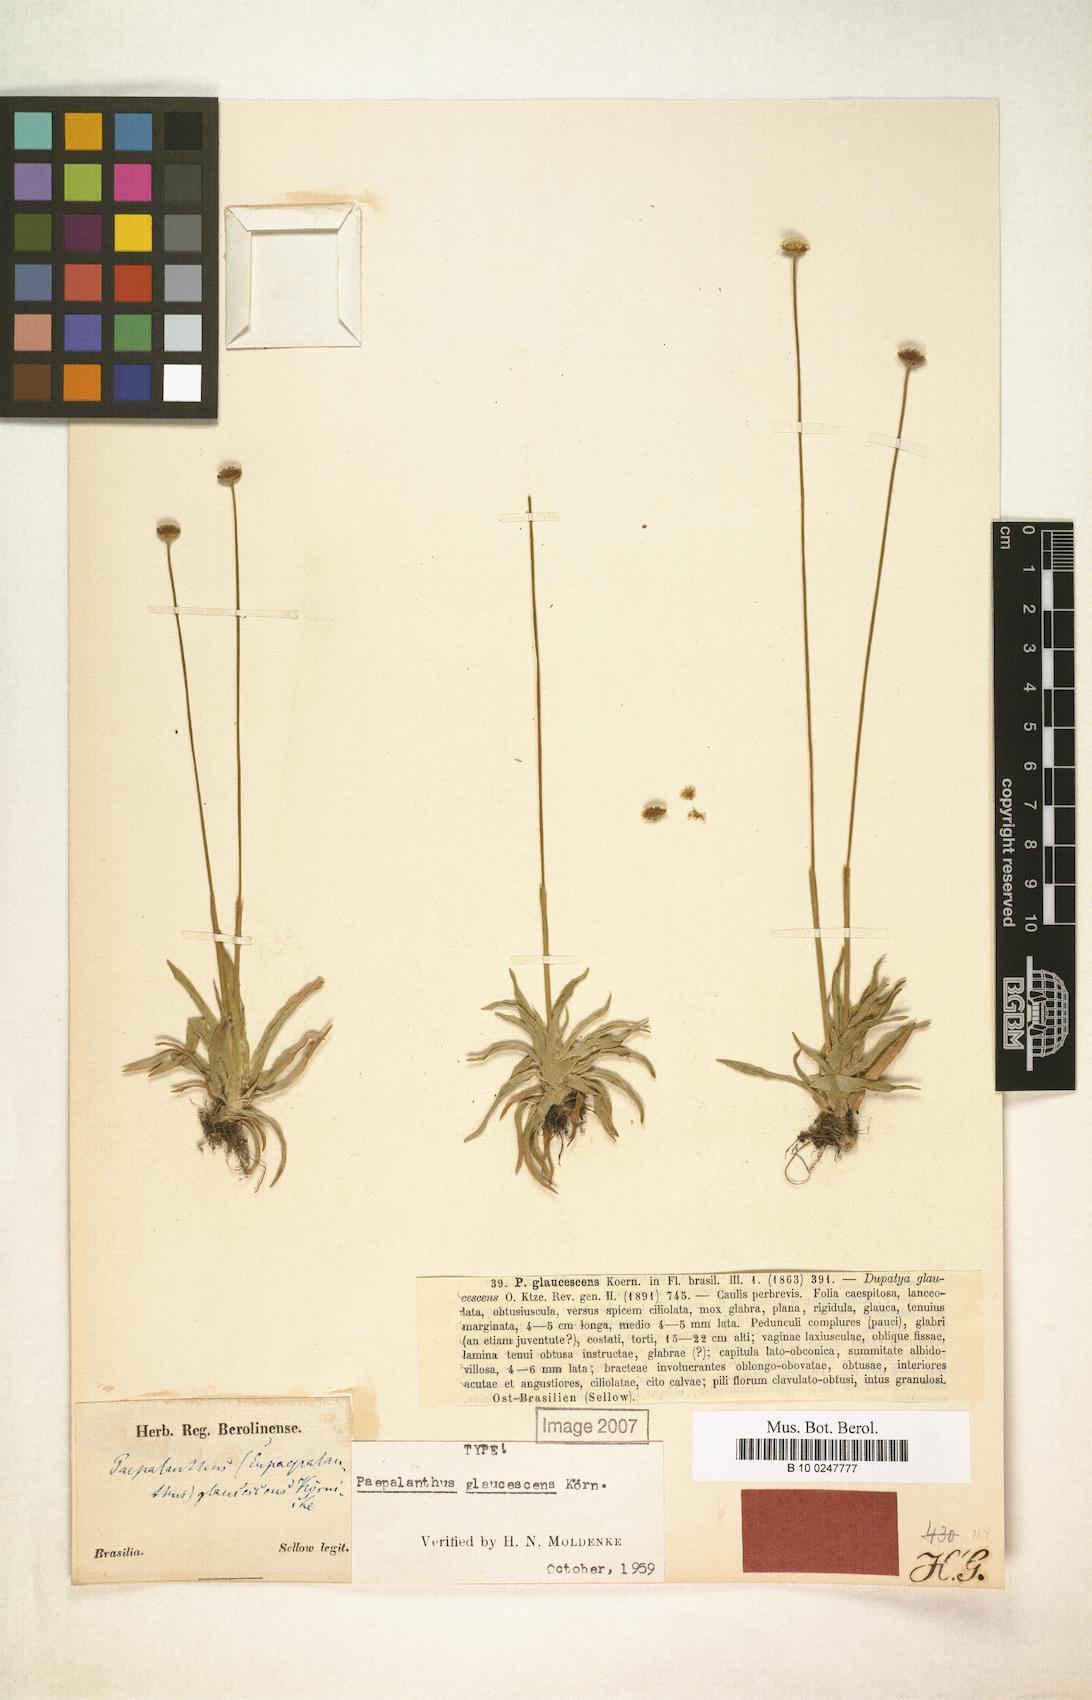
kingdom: Plantae
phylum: Tracheophyta
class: Liliopsida
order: Poales
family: Eriocaulaceae
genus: Paepalanthus
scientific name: Paepalanthus glaucescens
